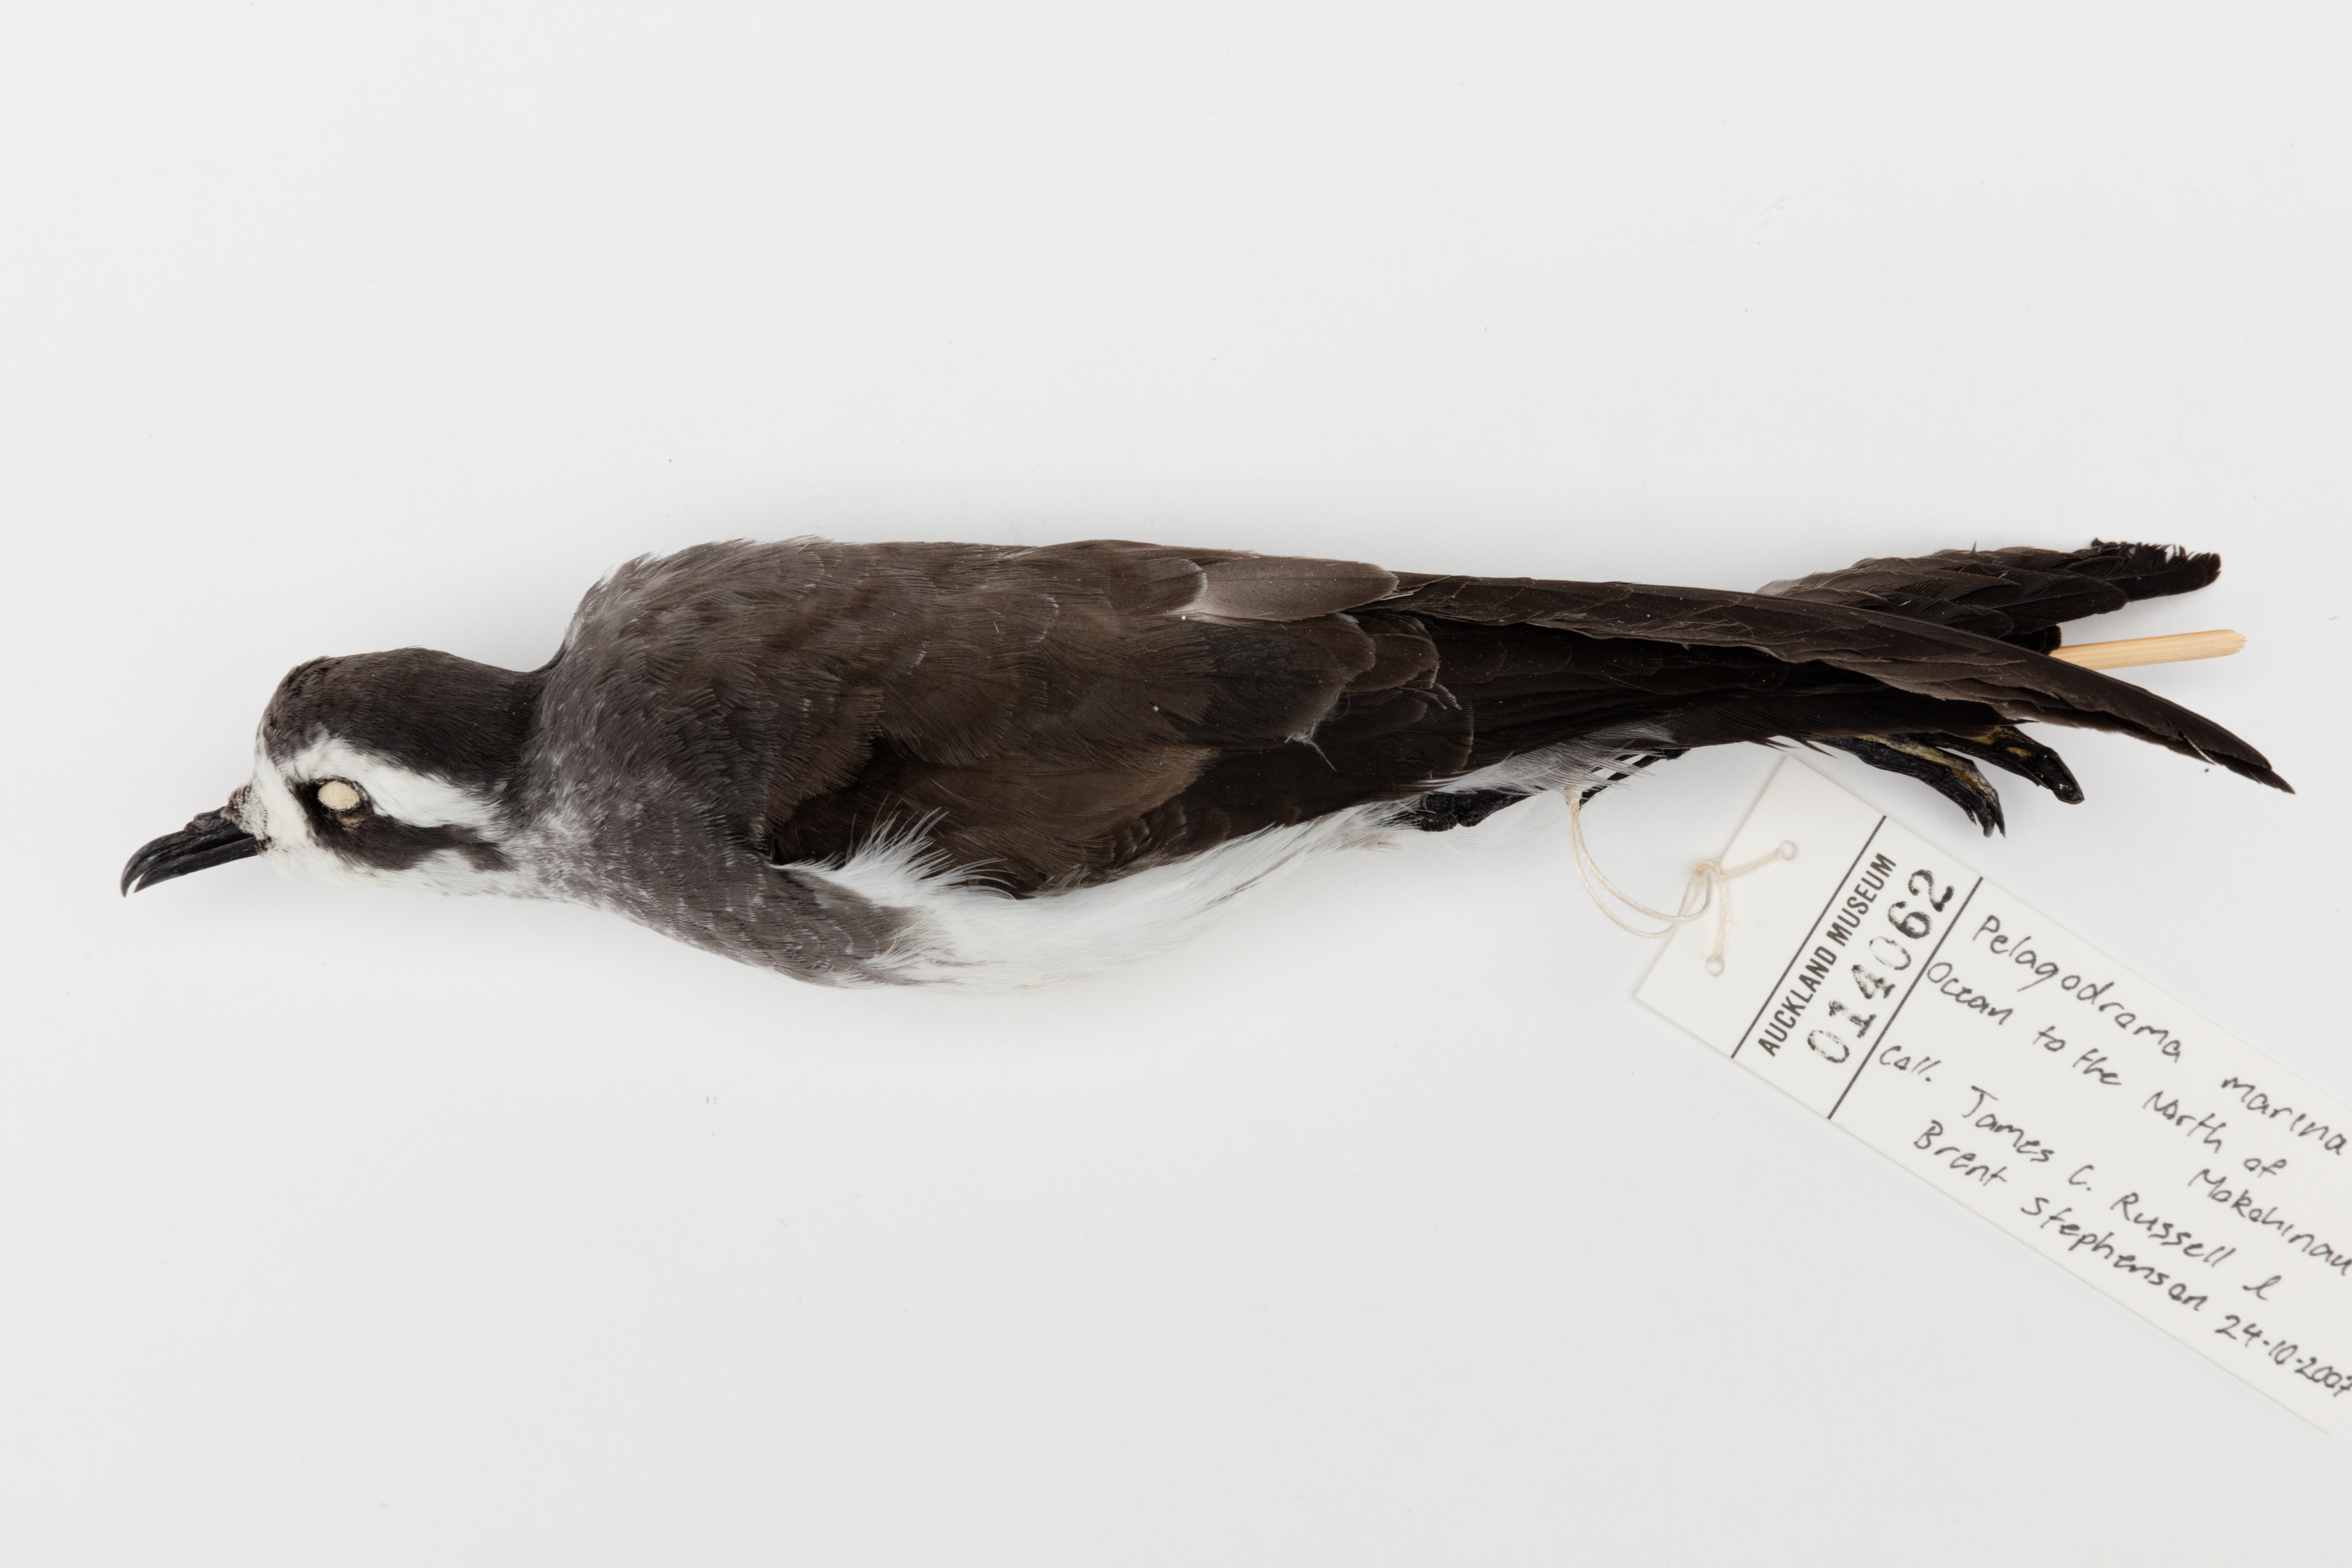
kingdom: Animalia
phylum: Chordata
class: Aves
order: Procellariiformes
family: Hydrobatidae
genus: Pelagodroma
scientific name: Pelagodroma marina
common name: White-faced storm-petrel
